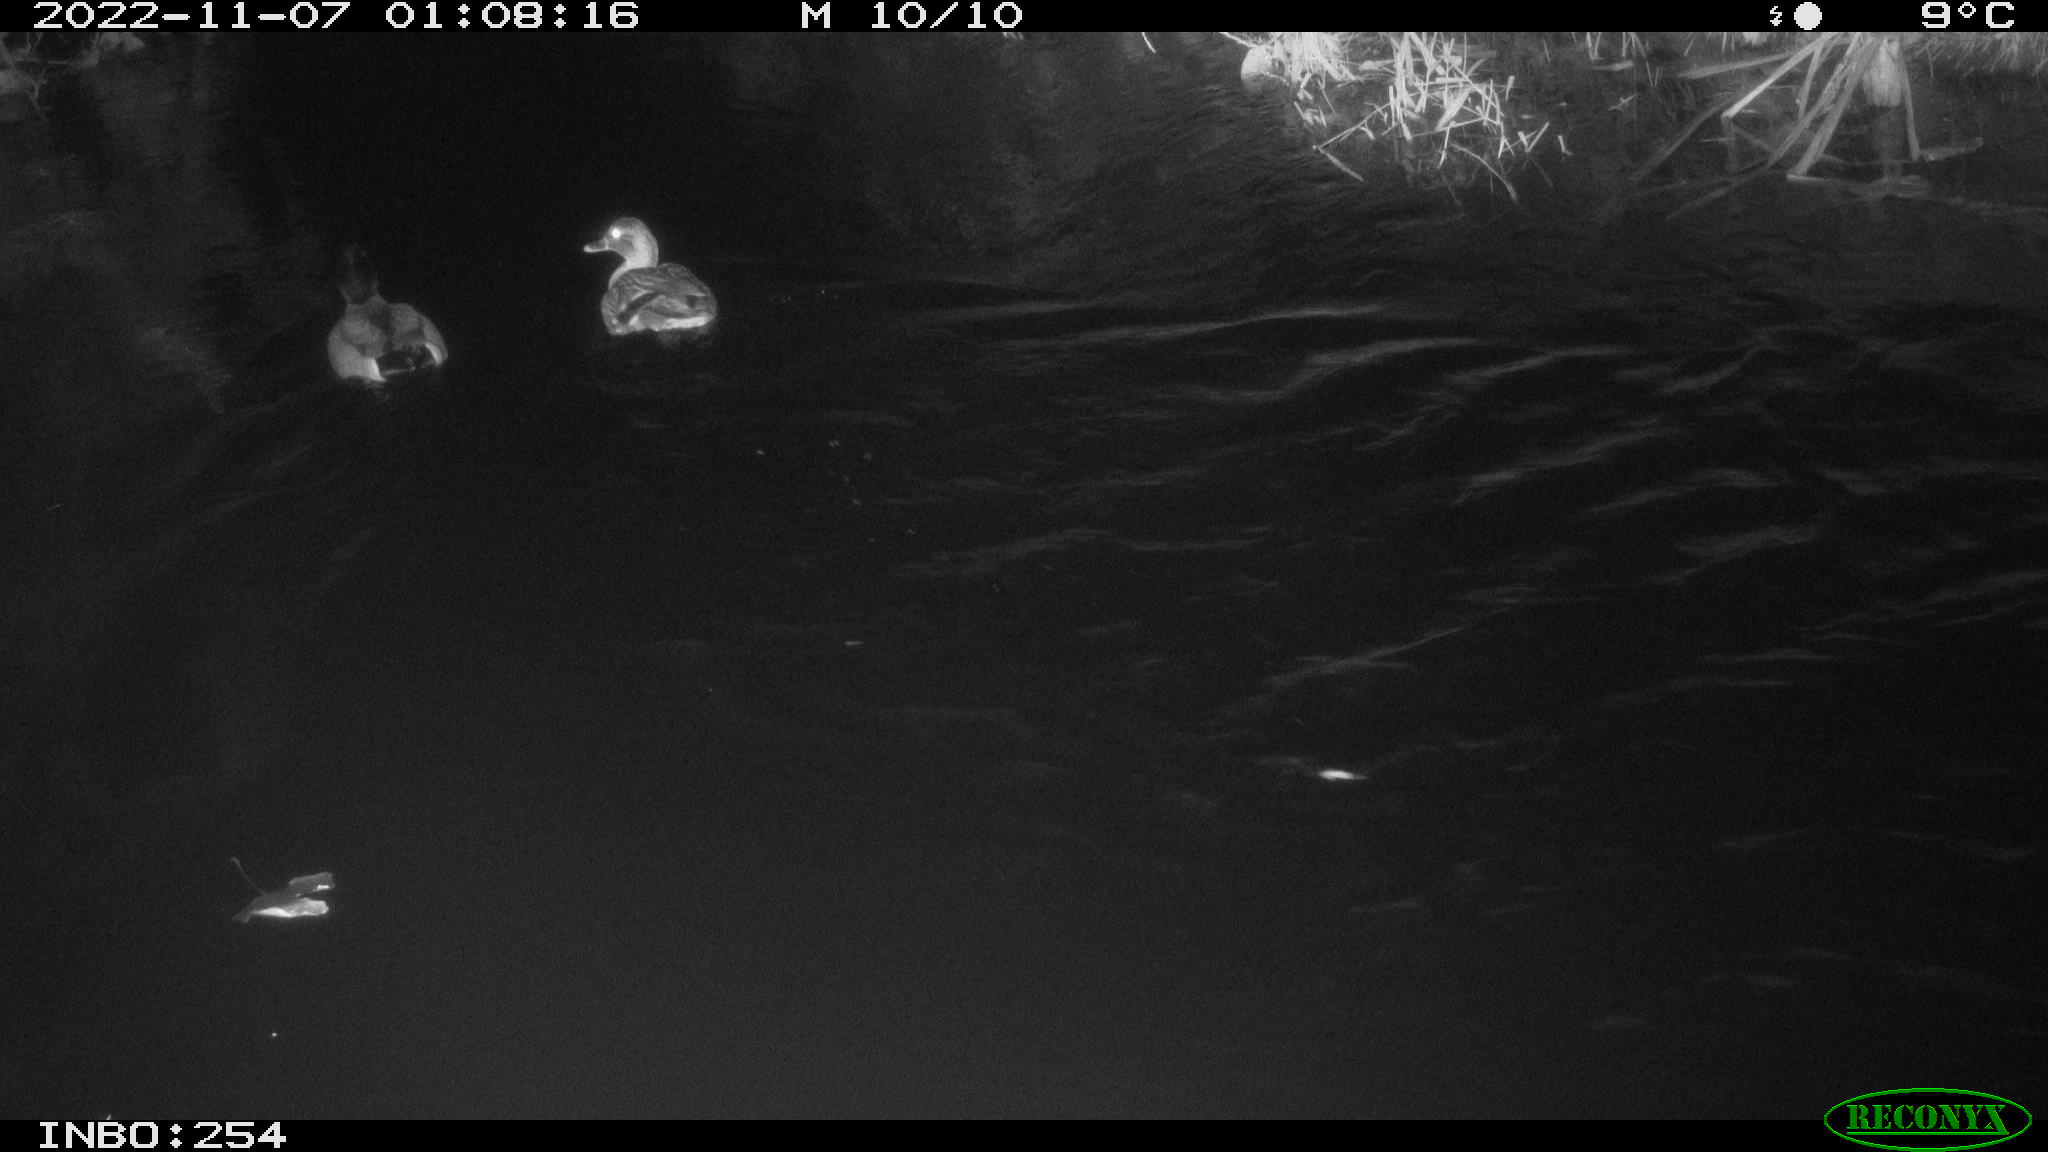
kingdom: Animalia
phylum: Chordata
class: Aves
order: Anseriformes
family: Anatidae
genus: Anas
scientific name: Anas
